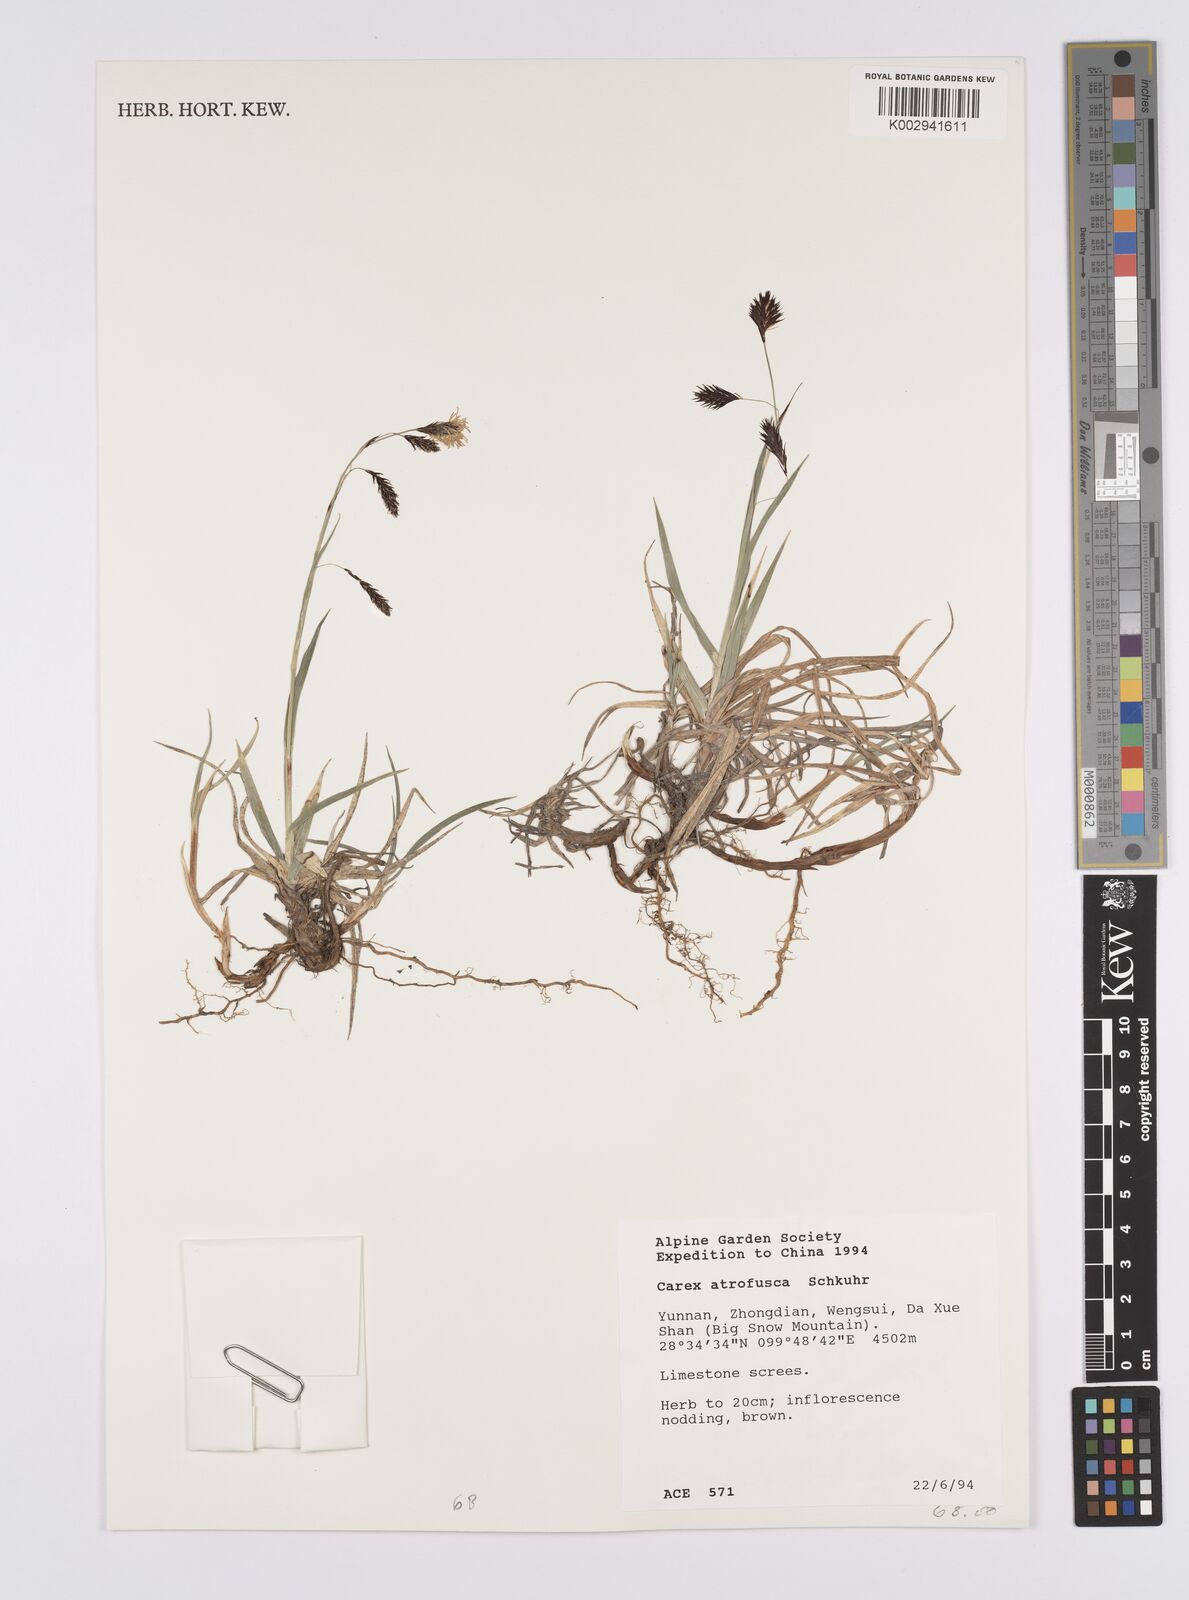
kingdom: Plantae
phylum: Tracheophyta
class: Liliopsida
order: Poales
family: Cyperaceae
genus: Carex
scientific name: Carex atrofusca
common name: Scorched alpine-sedge
